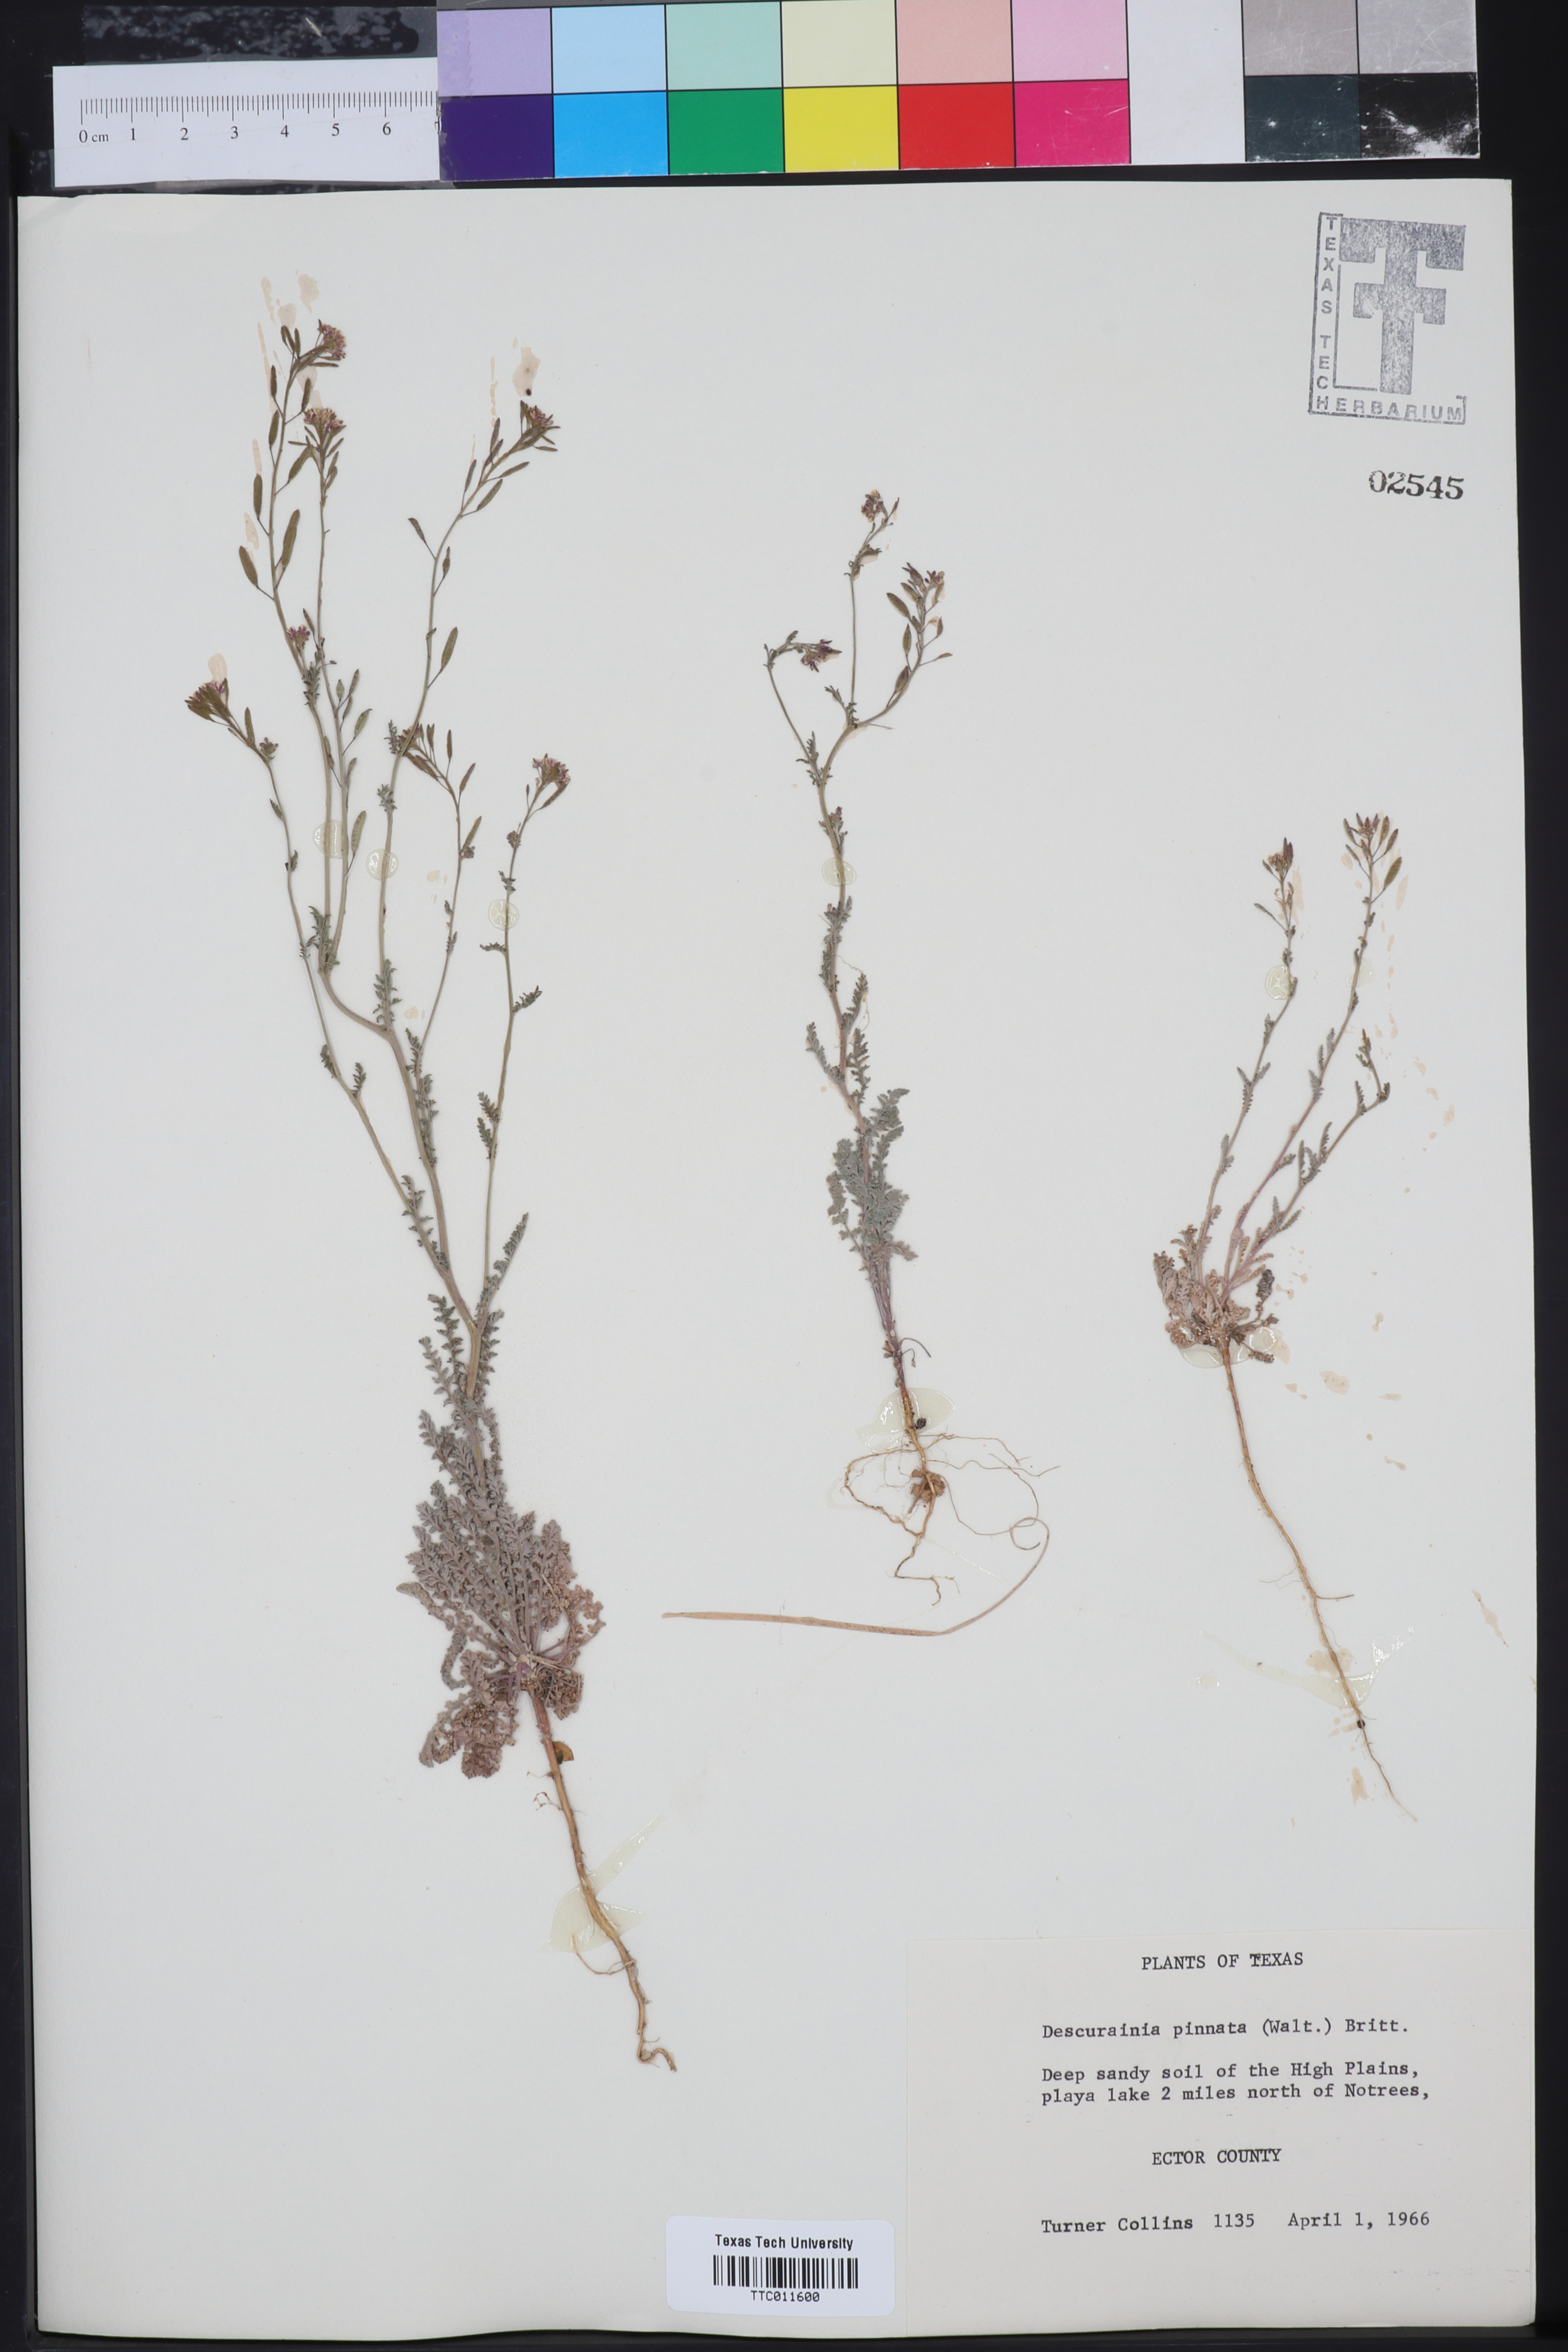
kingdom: Plantae
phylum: Tracheophyta
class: Magnoliopsida
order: Brassicales
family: Brassicaceae
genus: Descurainia
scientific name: Descurainia pinnata
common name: Western tansy mustard
